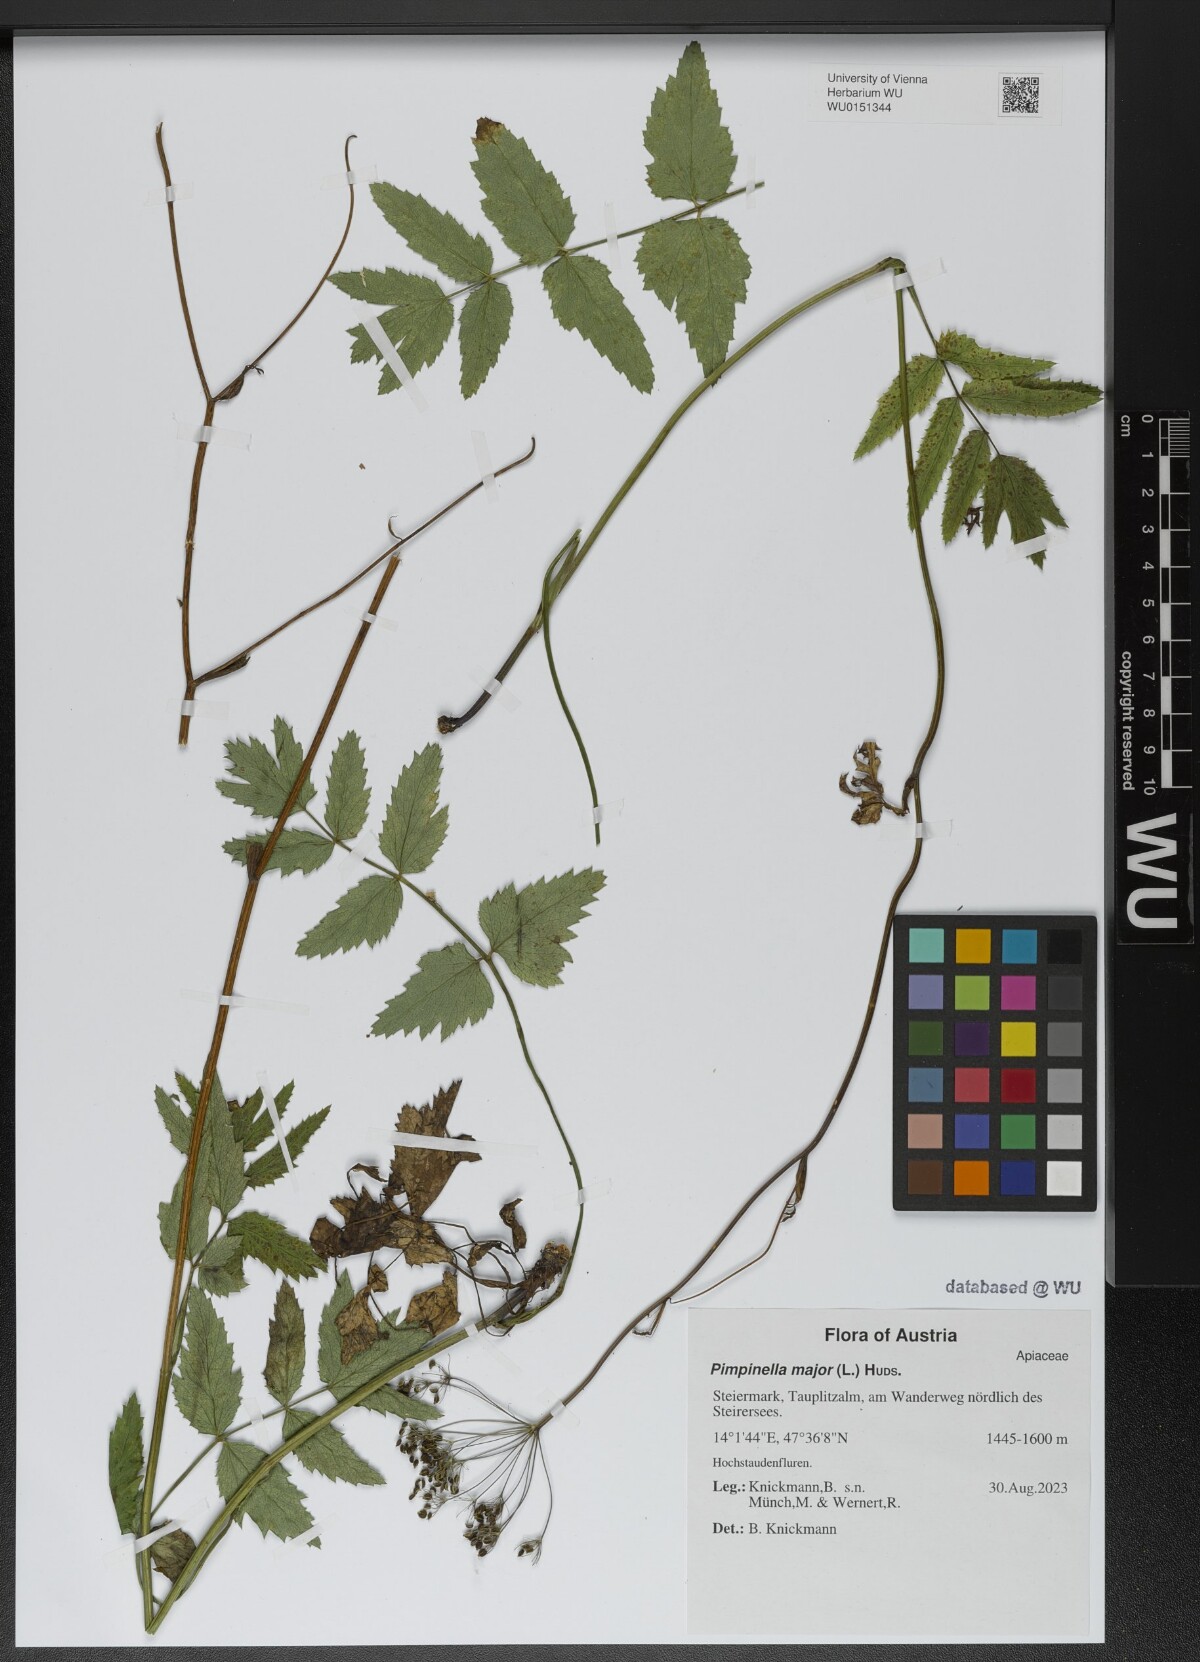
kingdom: Plantae
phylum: Tracheophyta
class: Magnoliopsida
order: Apiales
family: Apiaceae
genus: Pimpinella
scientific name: Pimpinella major
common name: Greater burnet-saxifrage
